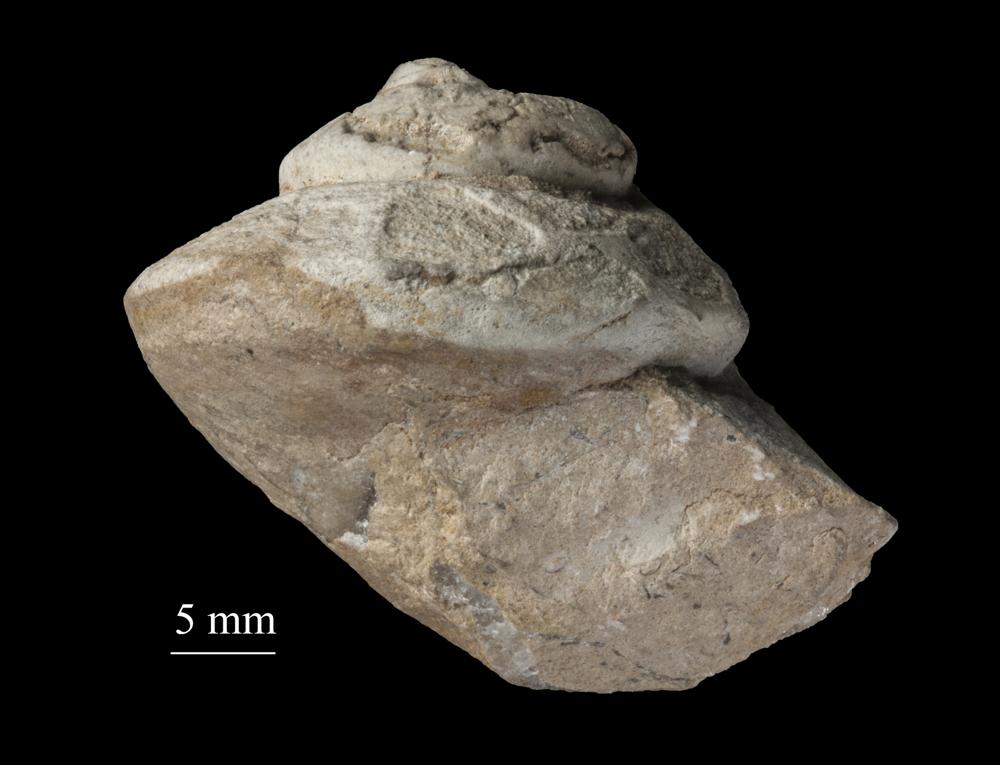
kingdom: Animalia
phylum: Mollusca
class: Gastropoda
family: Lophospiridae
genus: Loxoplocus
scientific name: Loxoplocus Turbo silurica
